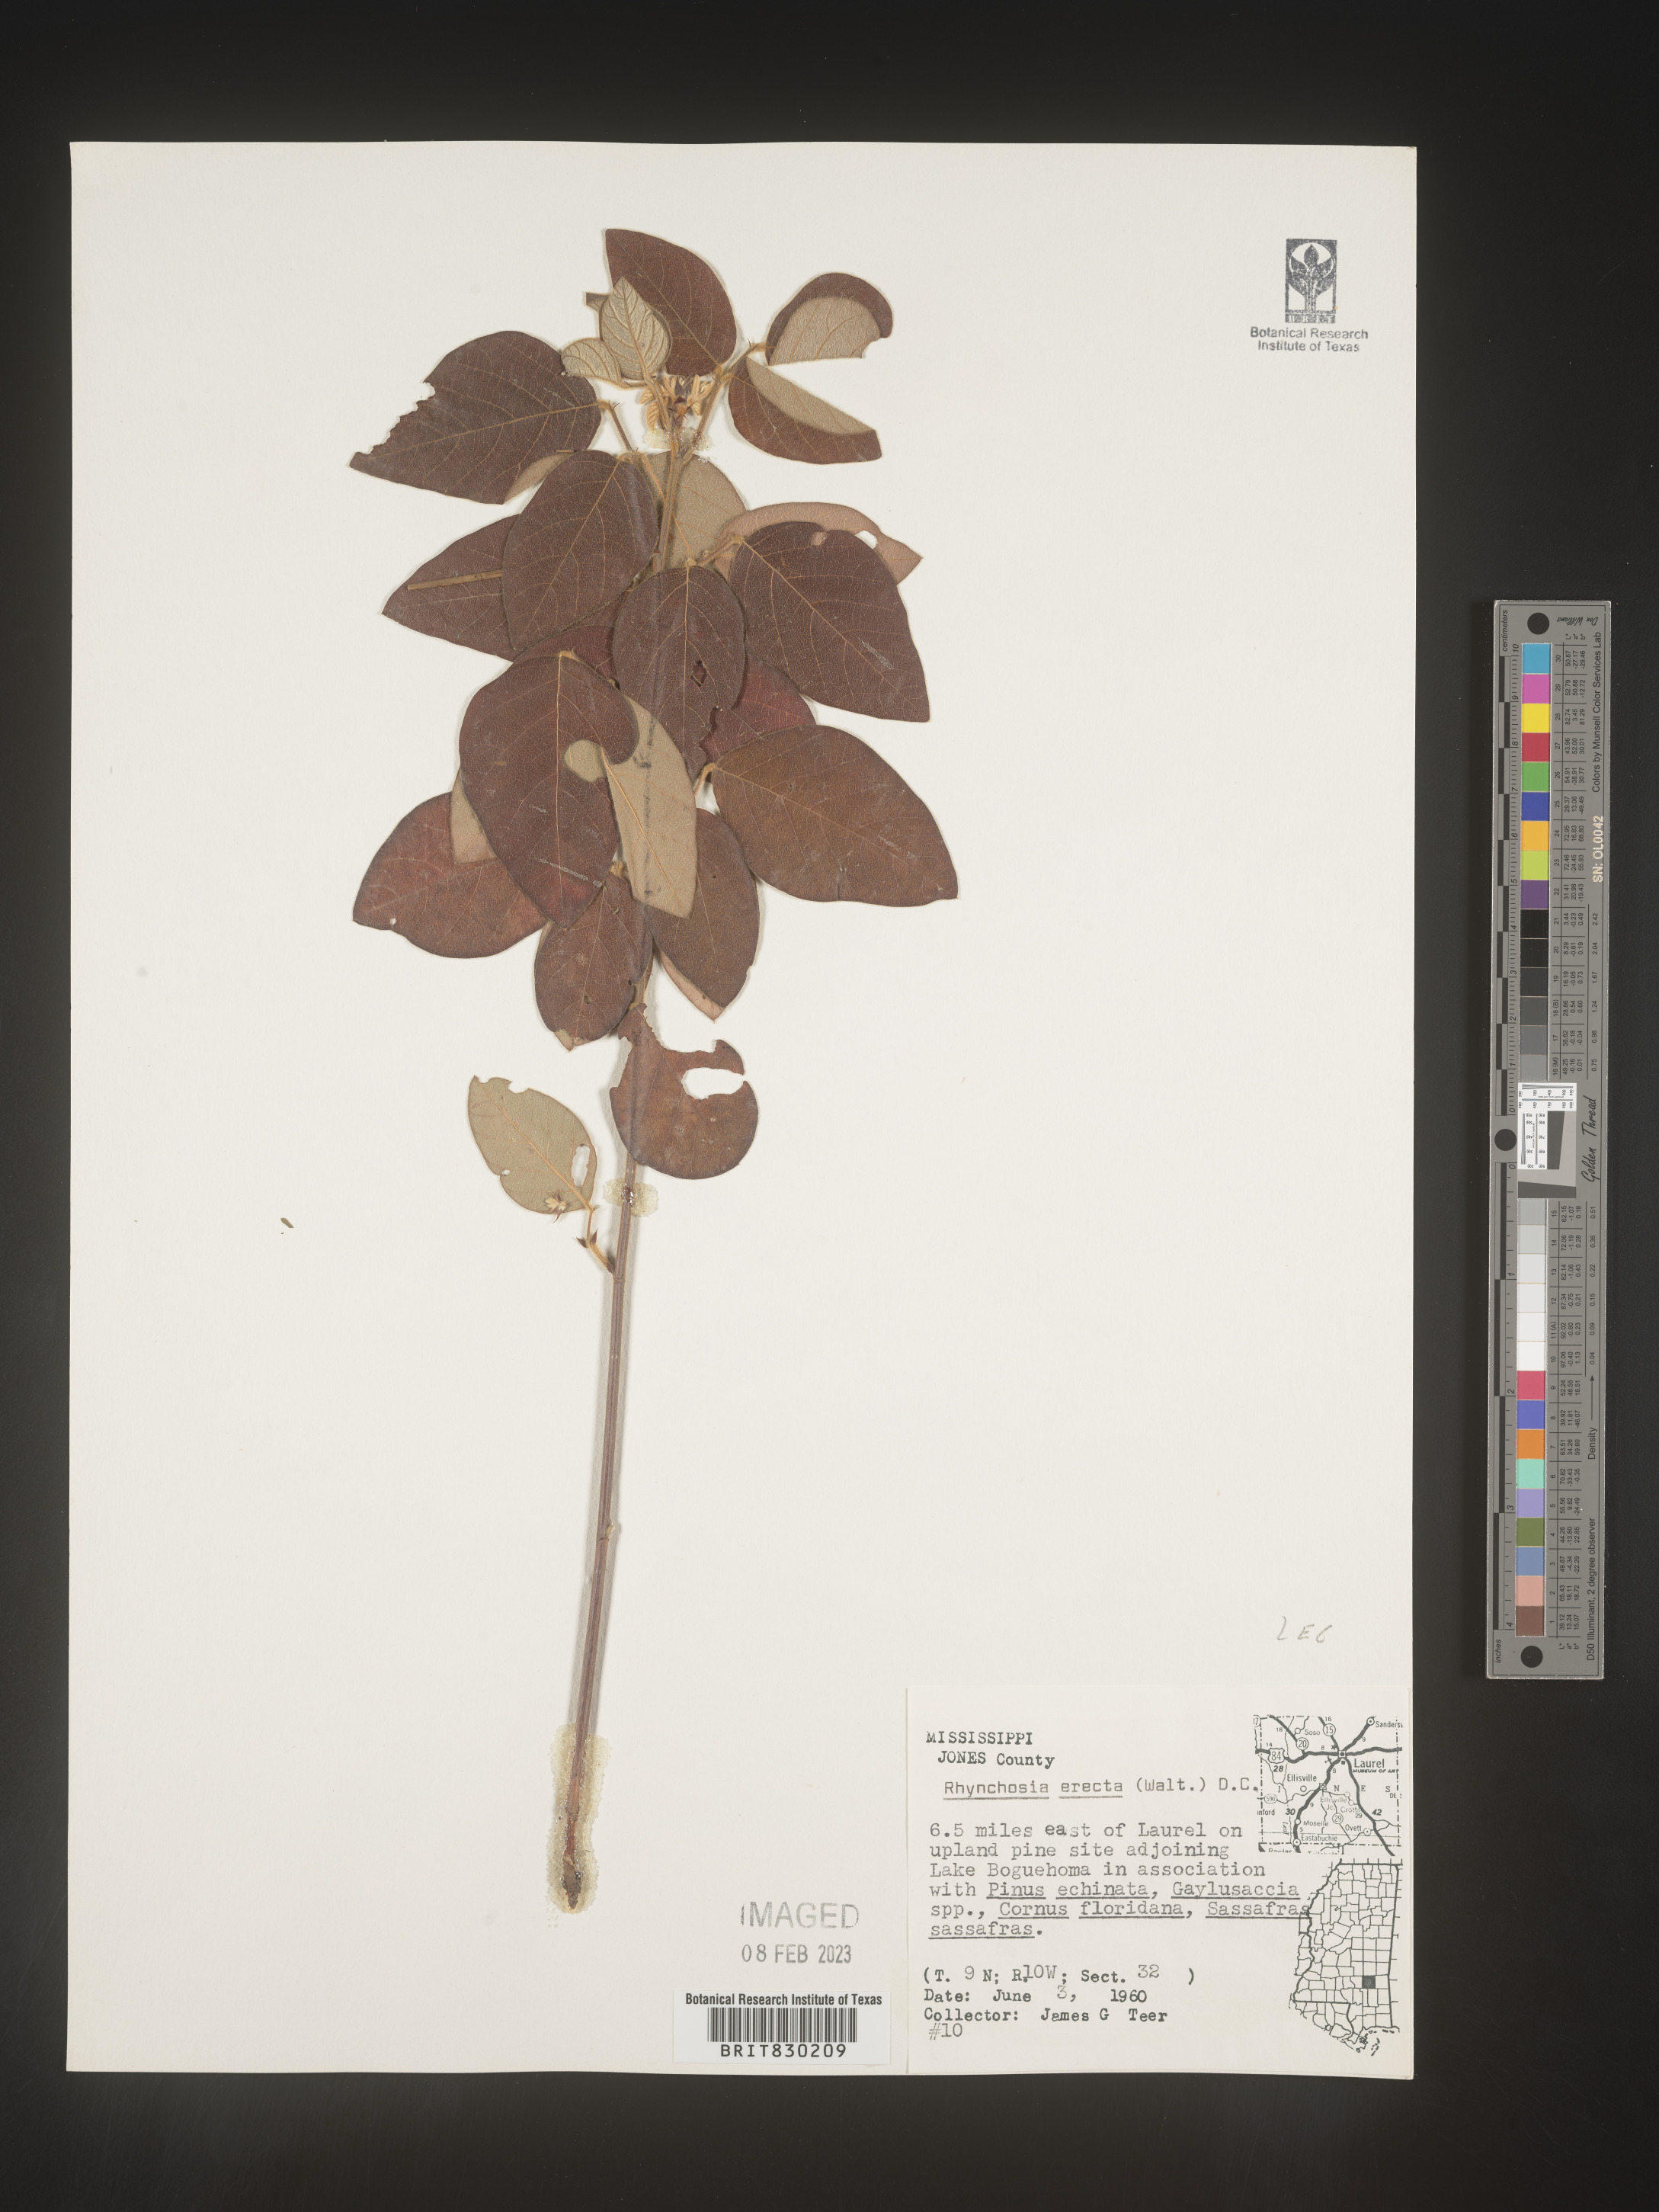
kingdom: Plantae
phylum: Tracheophyta
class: Magnoliopsida
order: Fabales
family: Fabaceae
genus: Rhynchosia
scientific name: Rhynchosia rothii
